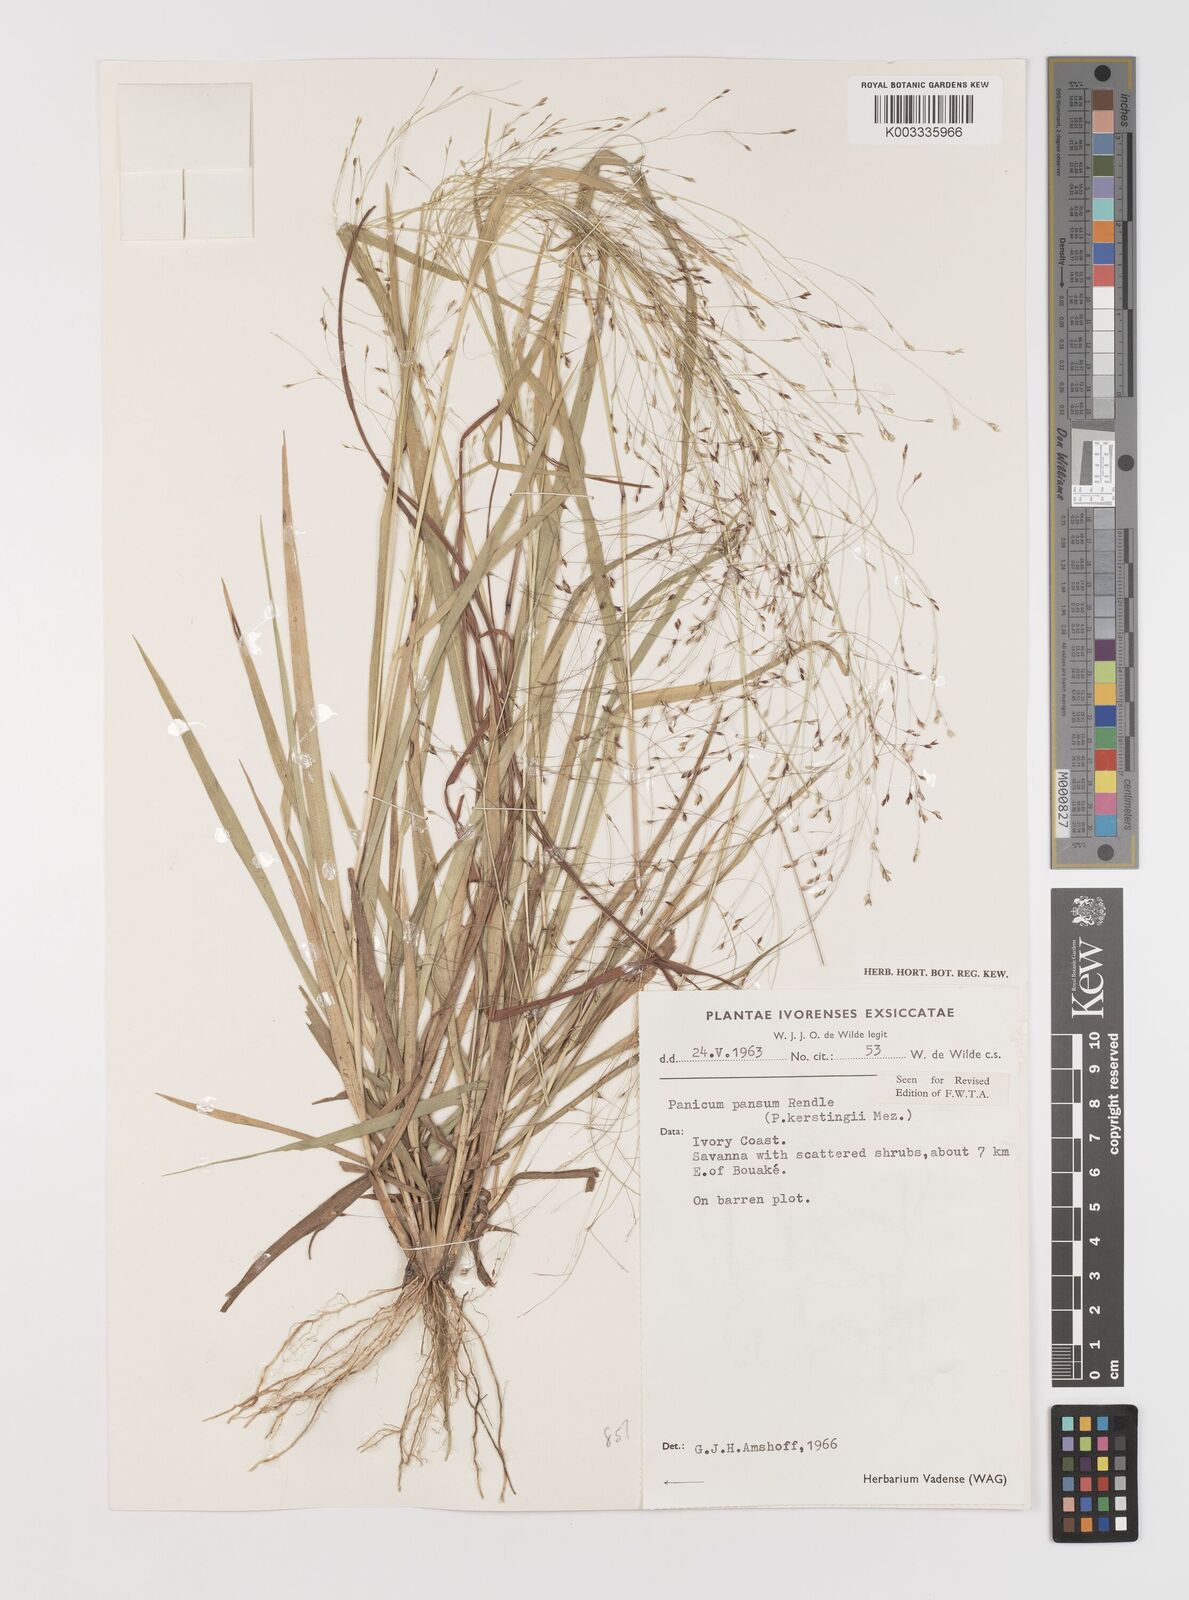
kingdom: Plantae
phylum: Tracheophyta
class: Liliopsida
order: Poales
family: Poaceae
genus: Panicum
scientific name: Panicum pansum
